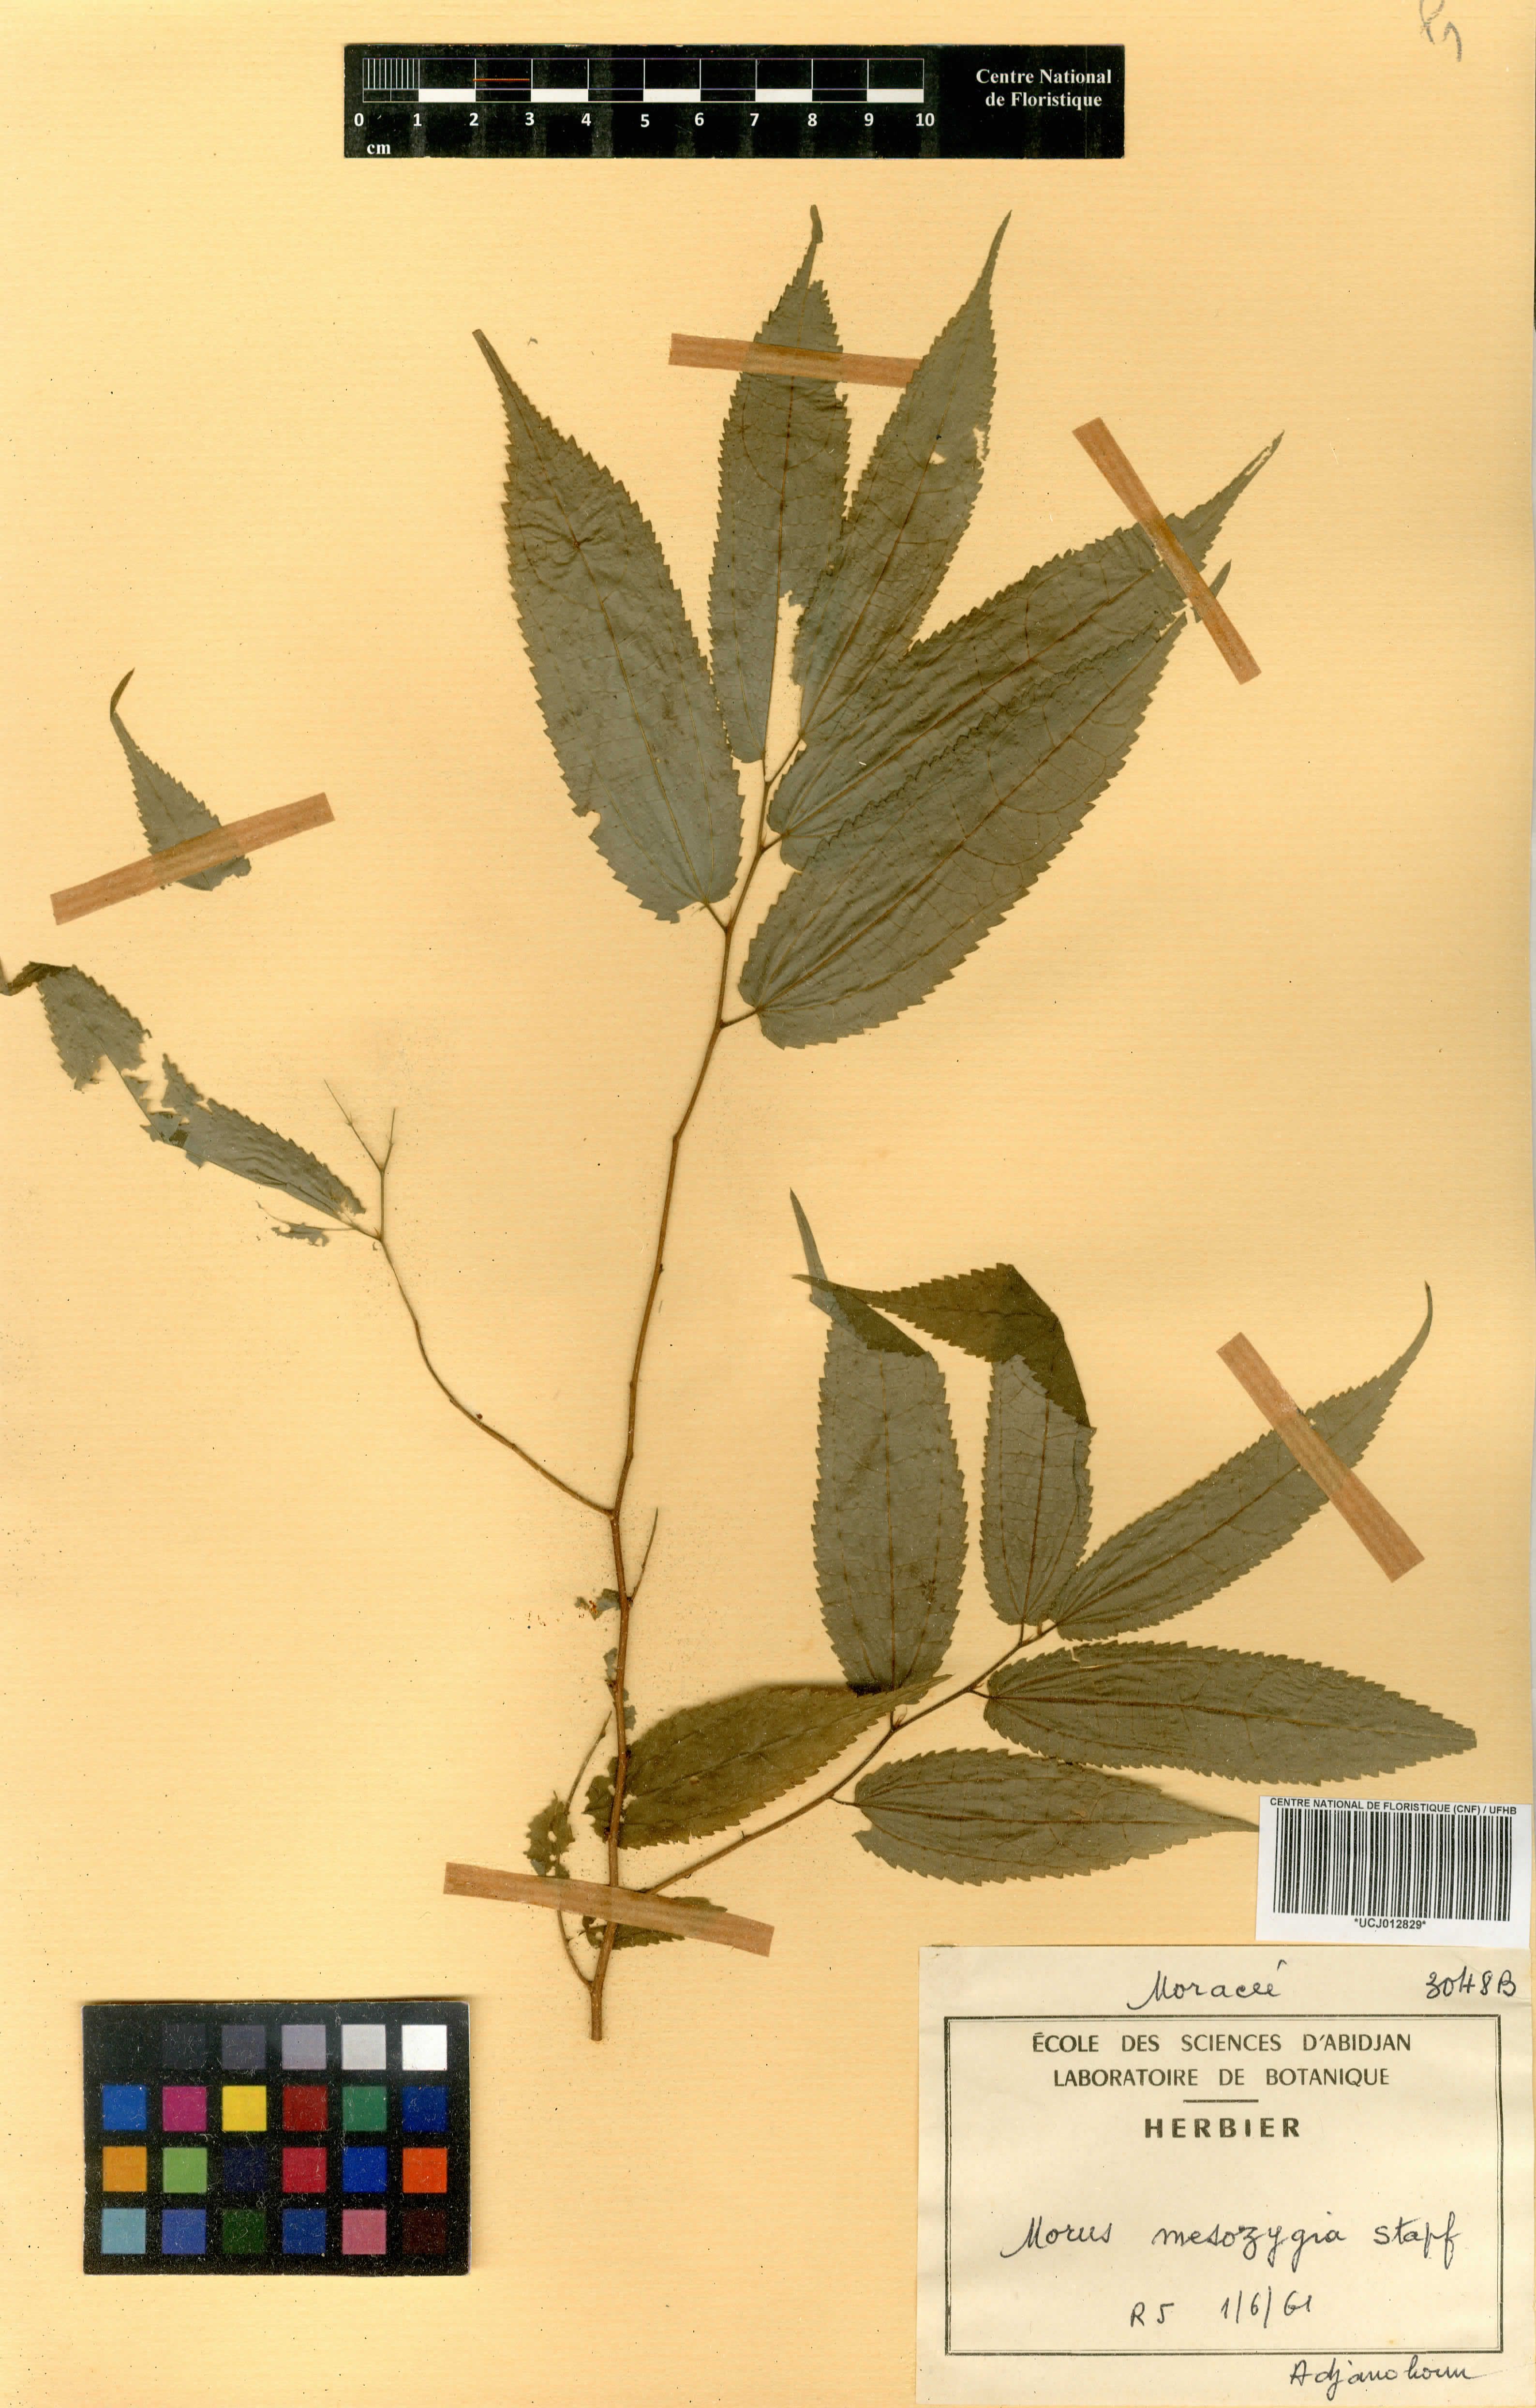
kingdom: Plantae
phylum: Tracheophyta
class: Magnoliopsida
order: Rosales
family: Moraceae
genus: Afromorus
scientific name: Afromorus mesozygia
